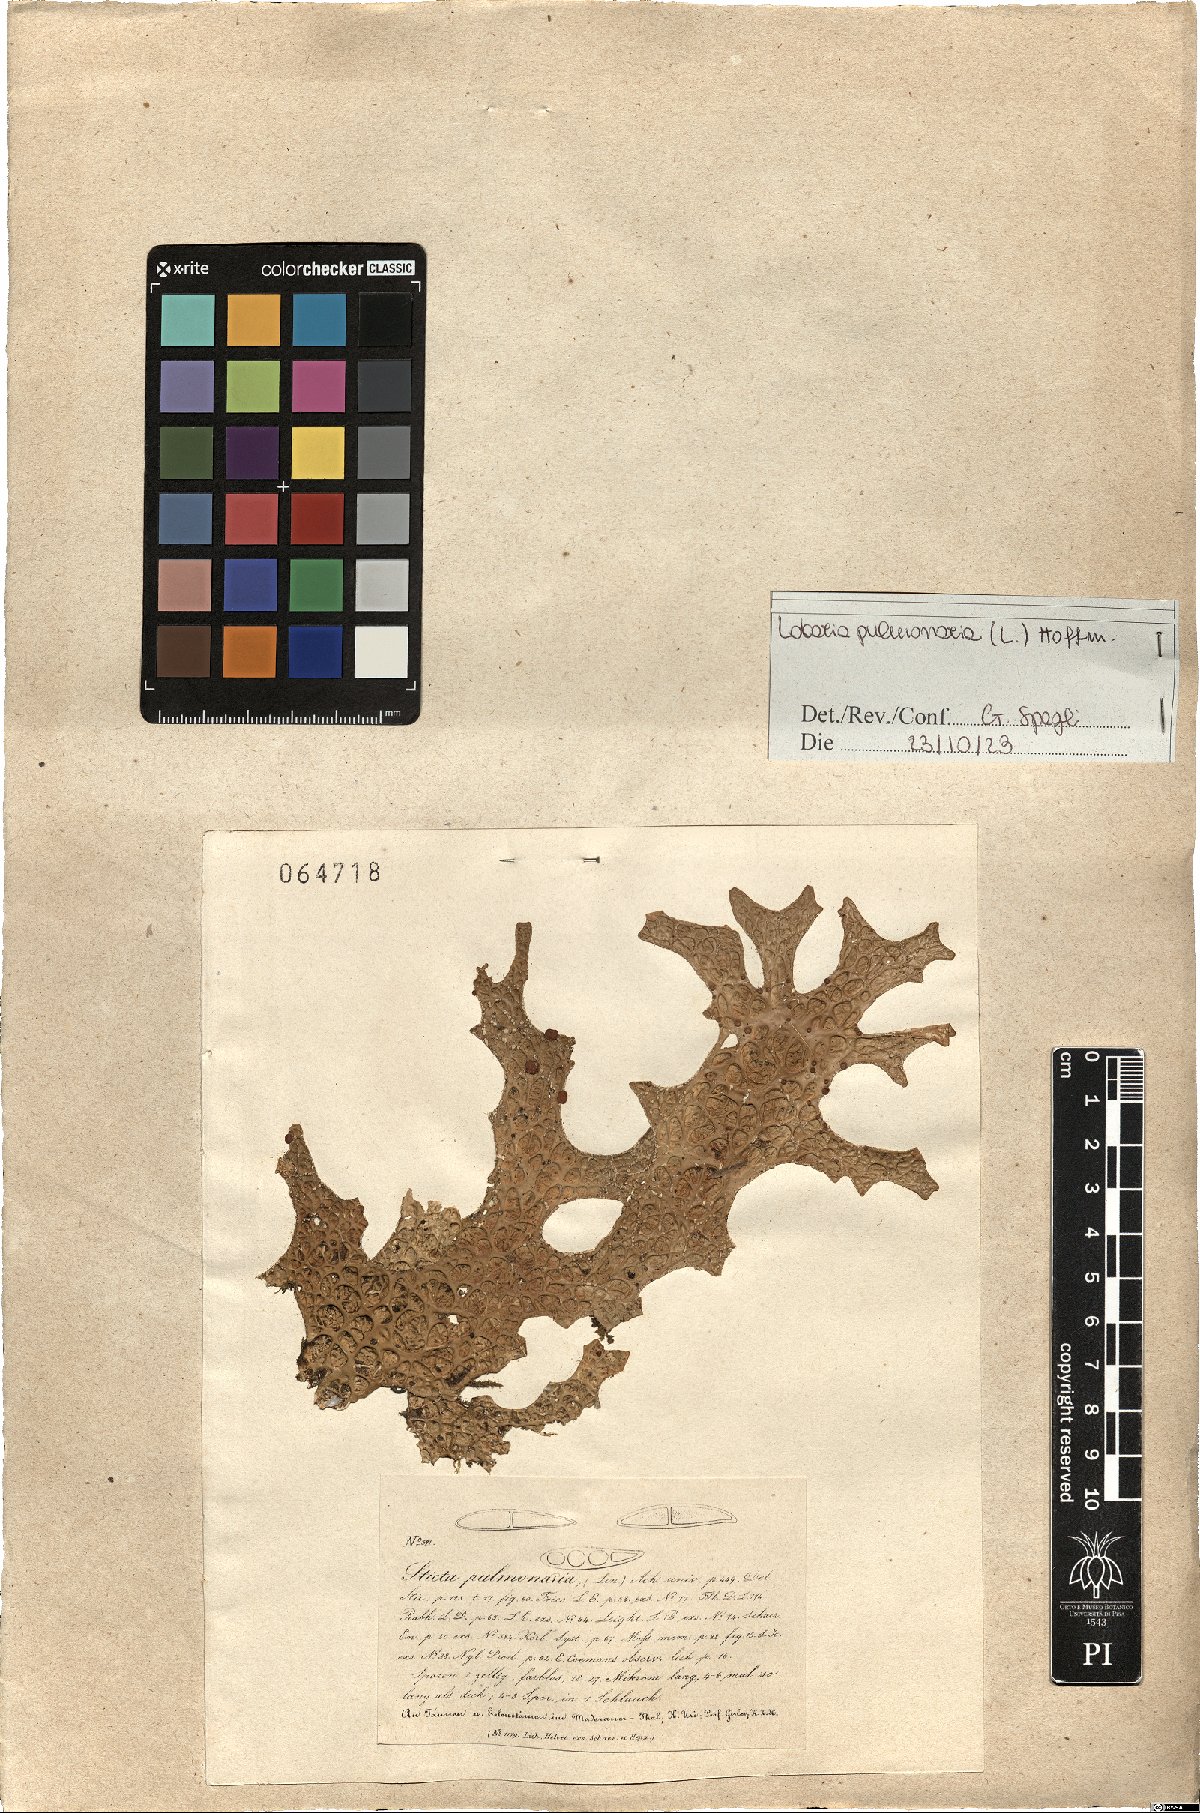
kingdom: Fungi
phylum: Ascomycota
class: Lecanoromycetes
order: Peltigerales
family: Lobariaceae
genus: Lobaria
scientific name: Lobaria pulmonaria
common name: Lungwort
